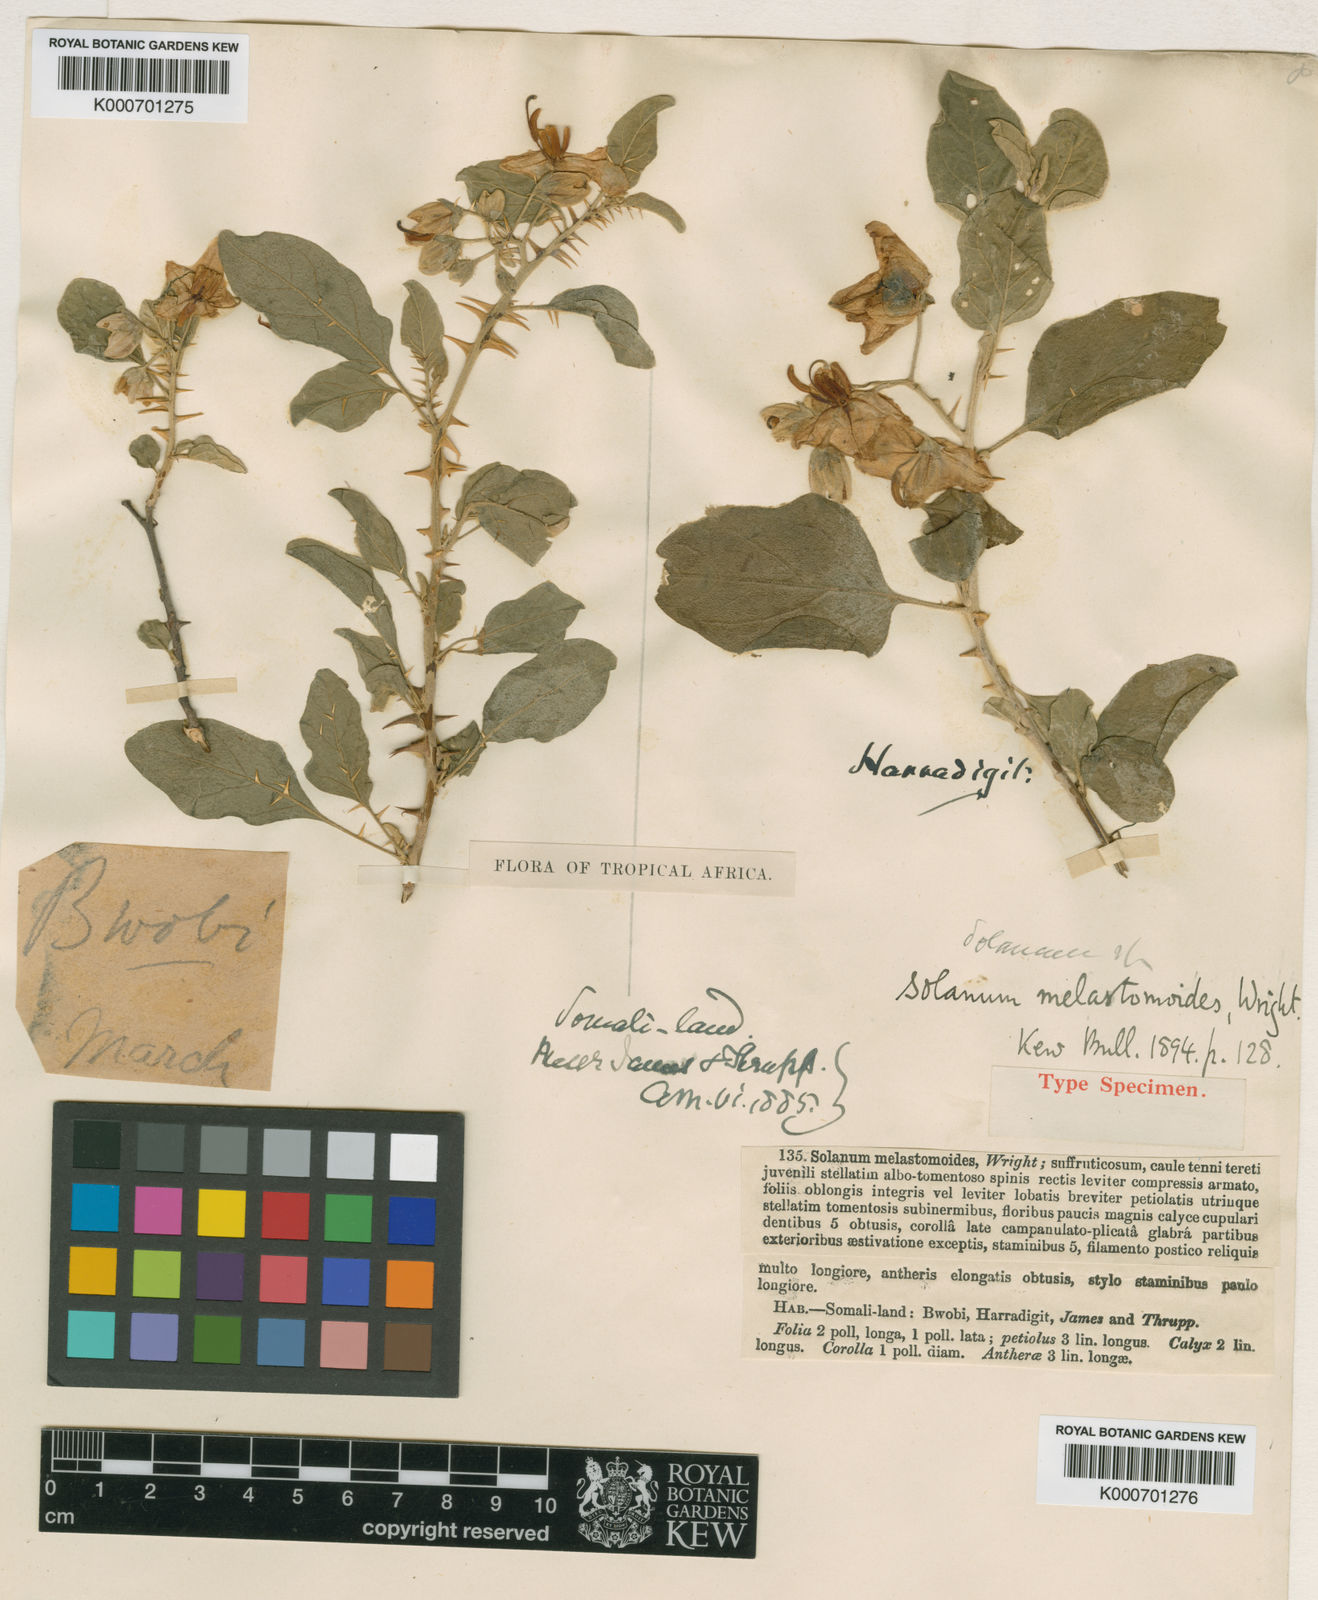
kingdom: Plantae
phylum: Tracheophyta
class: Magnoliopsida
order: Solanales
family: Solanaceae
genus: Solanum
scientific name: Solanum melastomoides
